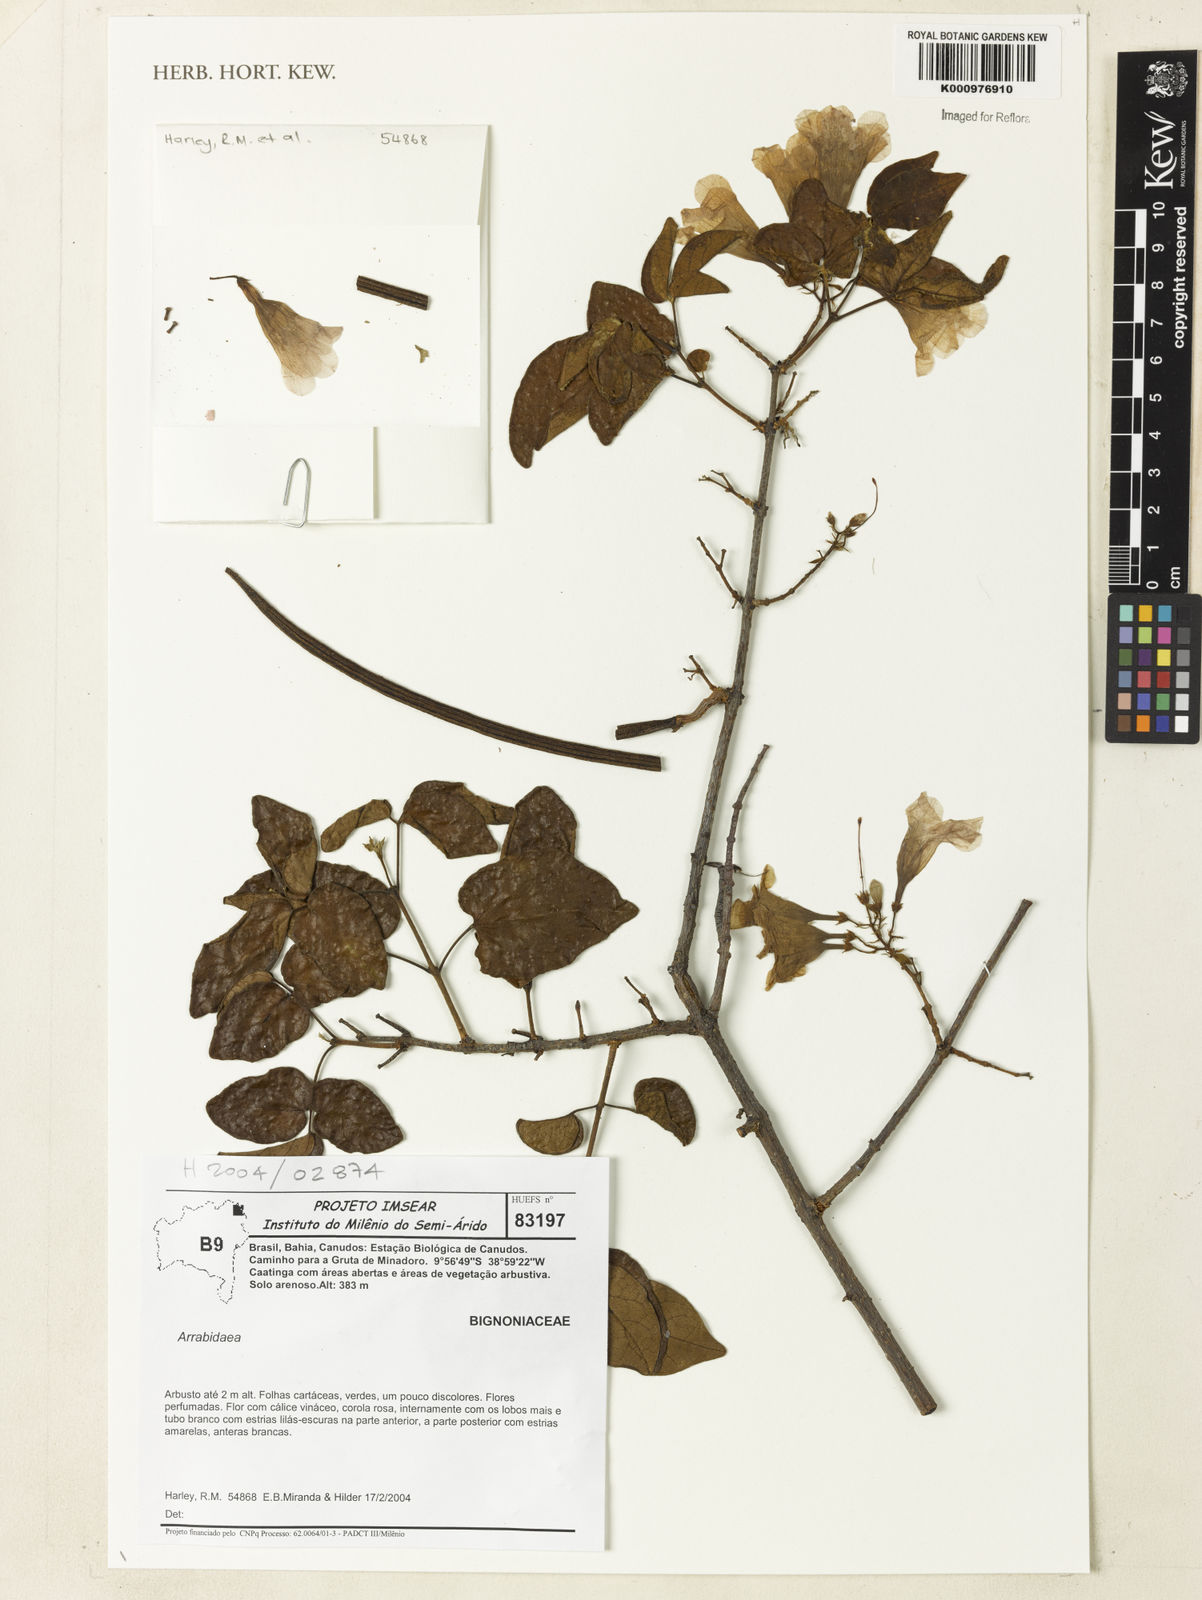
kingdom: Plantae
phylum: Tracheophyta
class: Magnoliopsida
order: Rosales
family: Rhamnaceae
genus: Arrabidaea
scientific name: Arrabidaea
